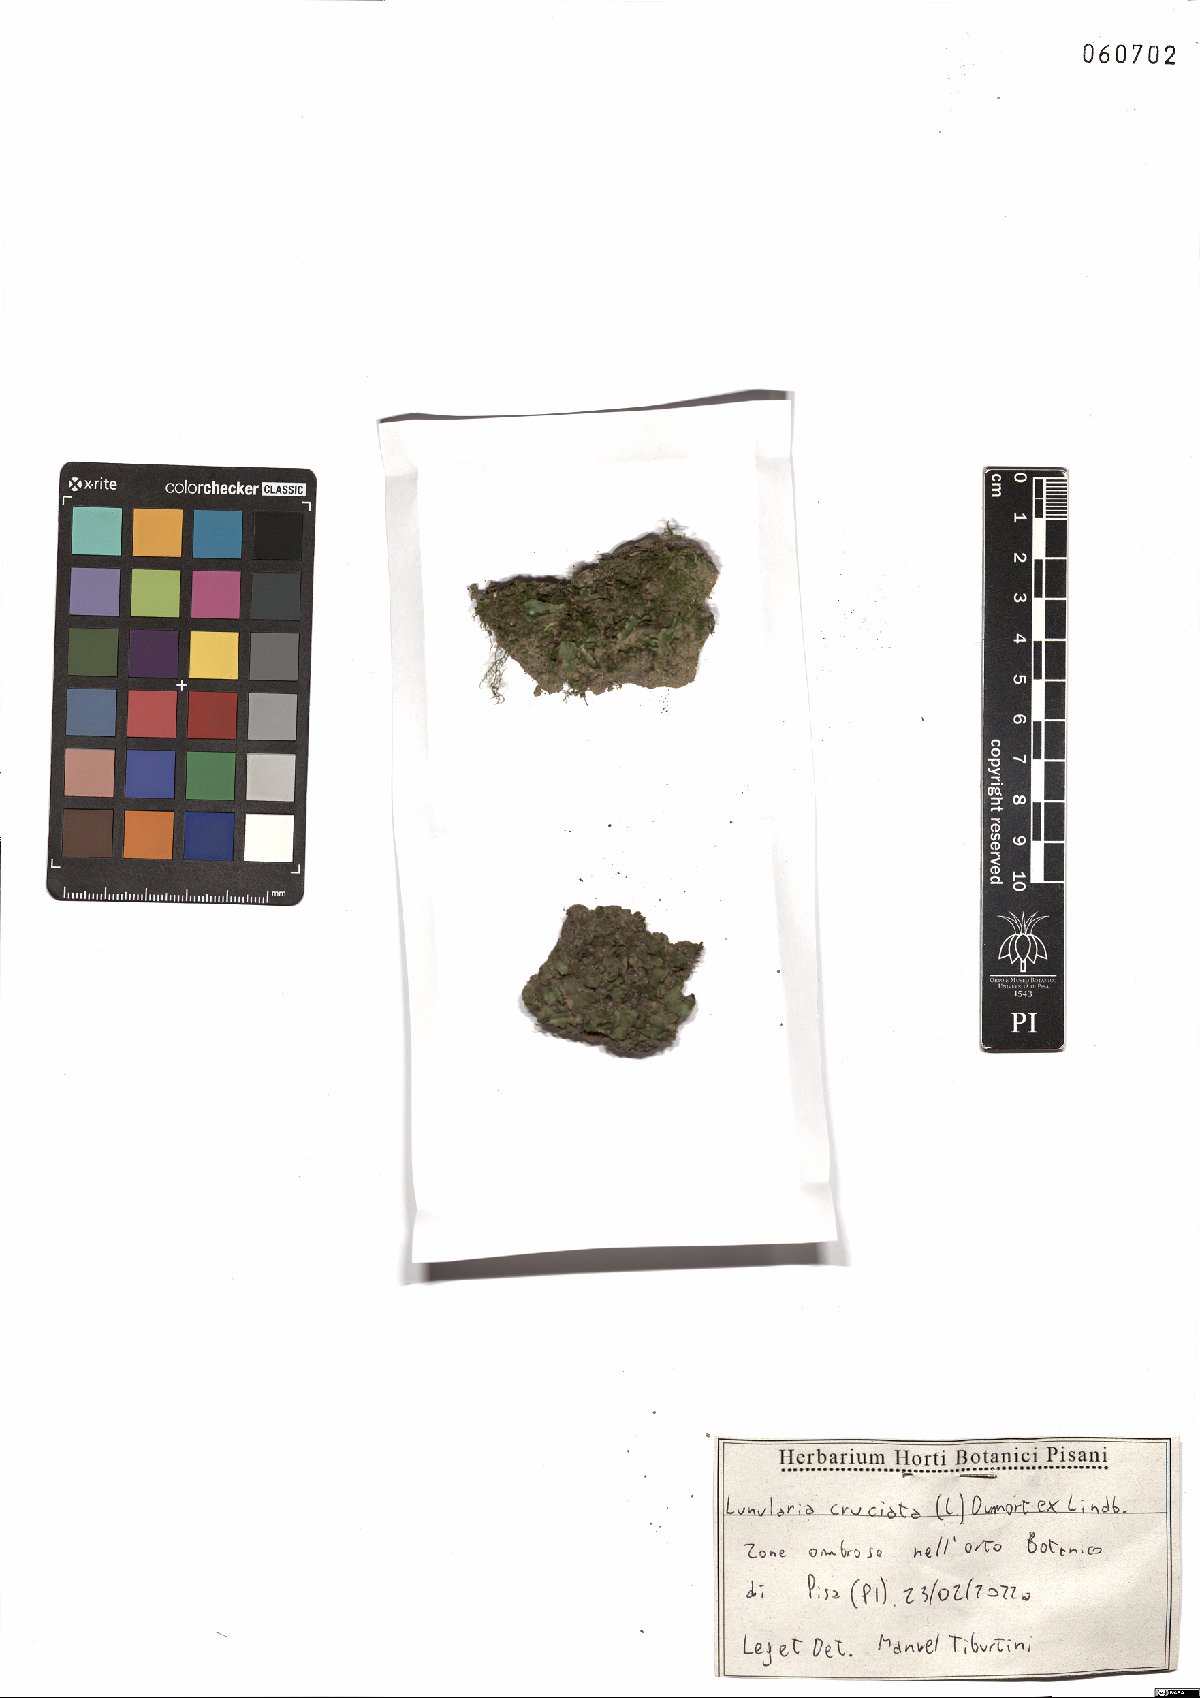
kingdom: Plantae
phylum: Marchantiophyta
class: Marchantiopsida
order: Lunulariales
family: Lunulariaceae
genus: Lunularia
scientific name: Lunularia cruciata
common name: Crescent-cup liverwort
